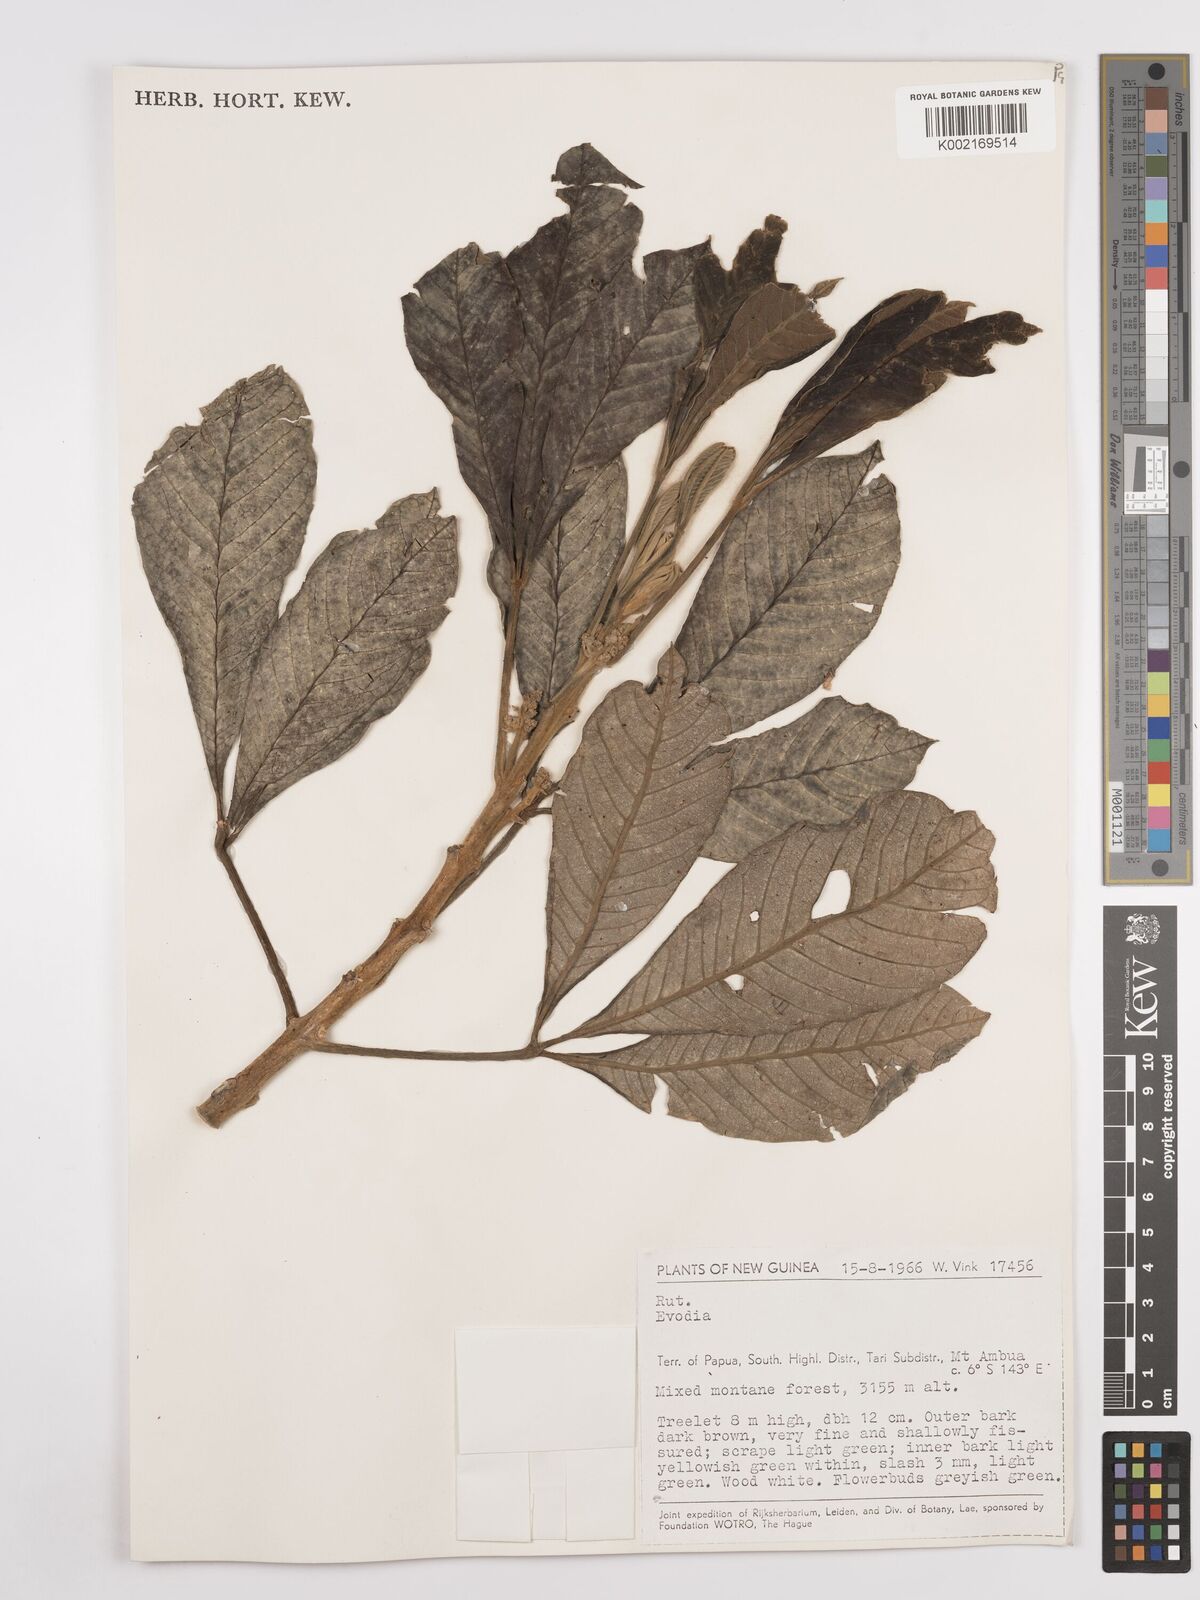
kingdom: Plantae
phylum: Tracheophyta
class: Magnoliopsida
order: Sapindales
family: Rutaceae
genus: Euodia
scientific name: Euodia
